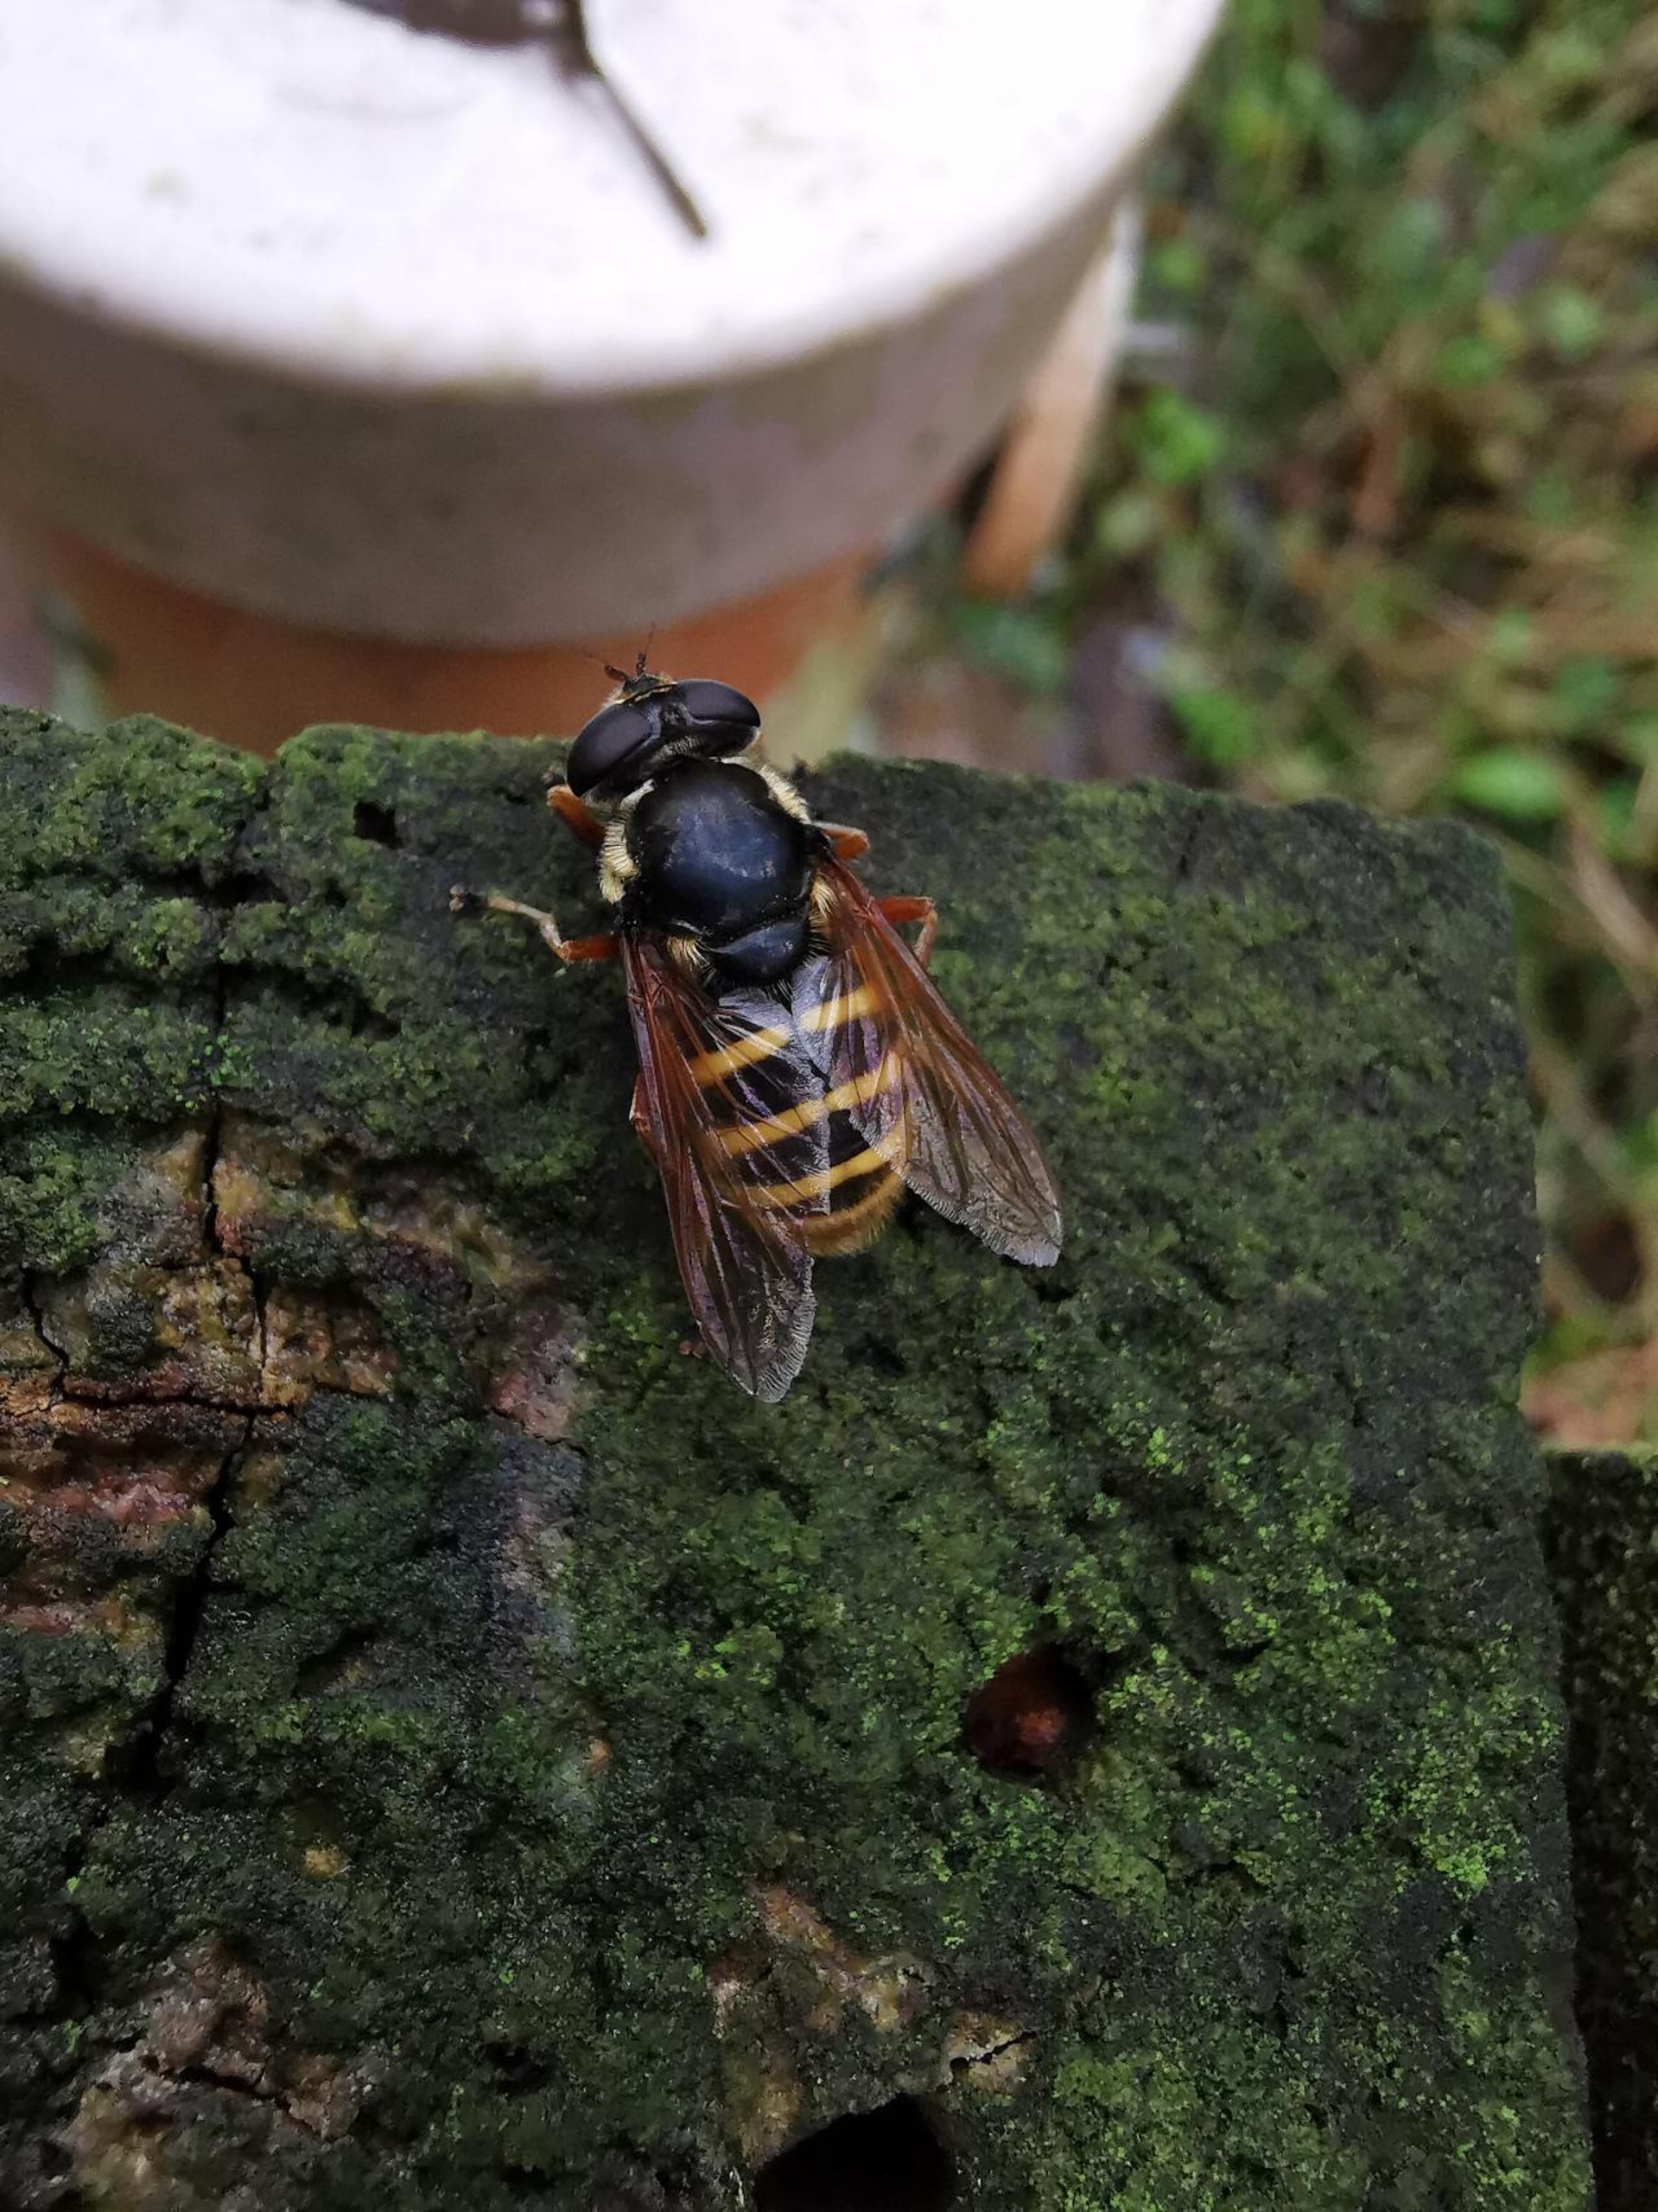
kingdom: Animalia
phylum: Arthropoda
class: Insecta
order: Diptera
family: Syrphidae
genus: Sericomyia
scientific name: Sericomyia silentis
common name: Tørve-silkesvirreflue
